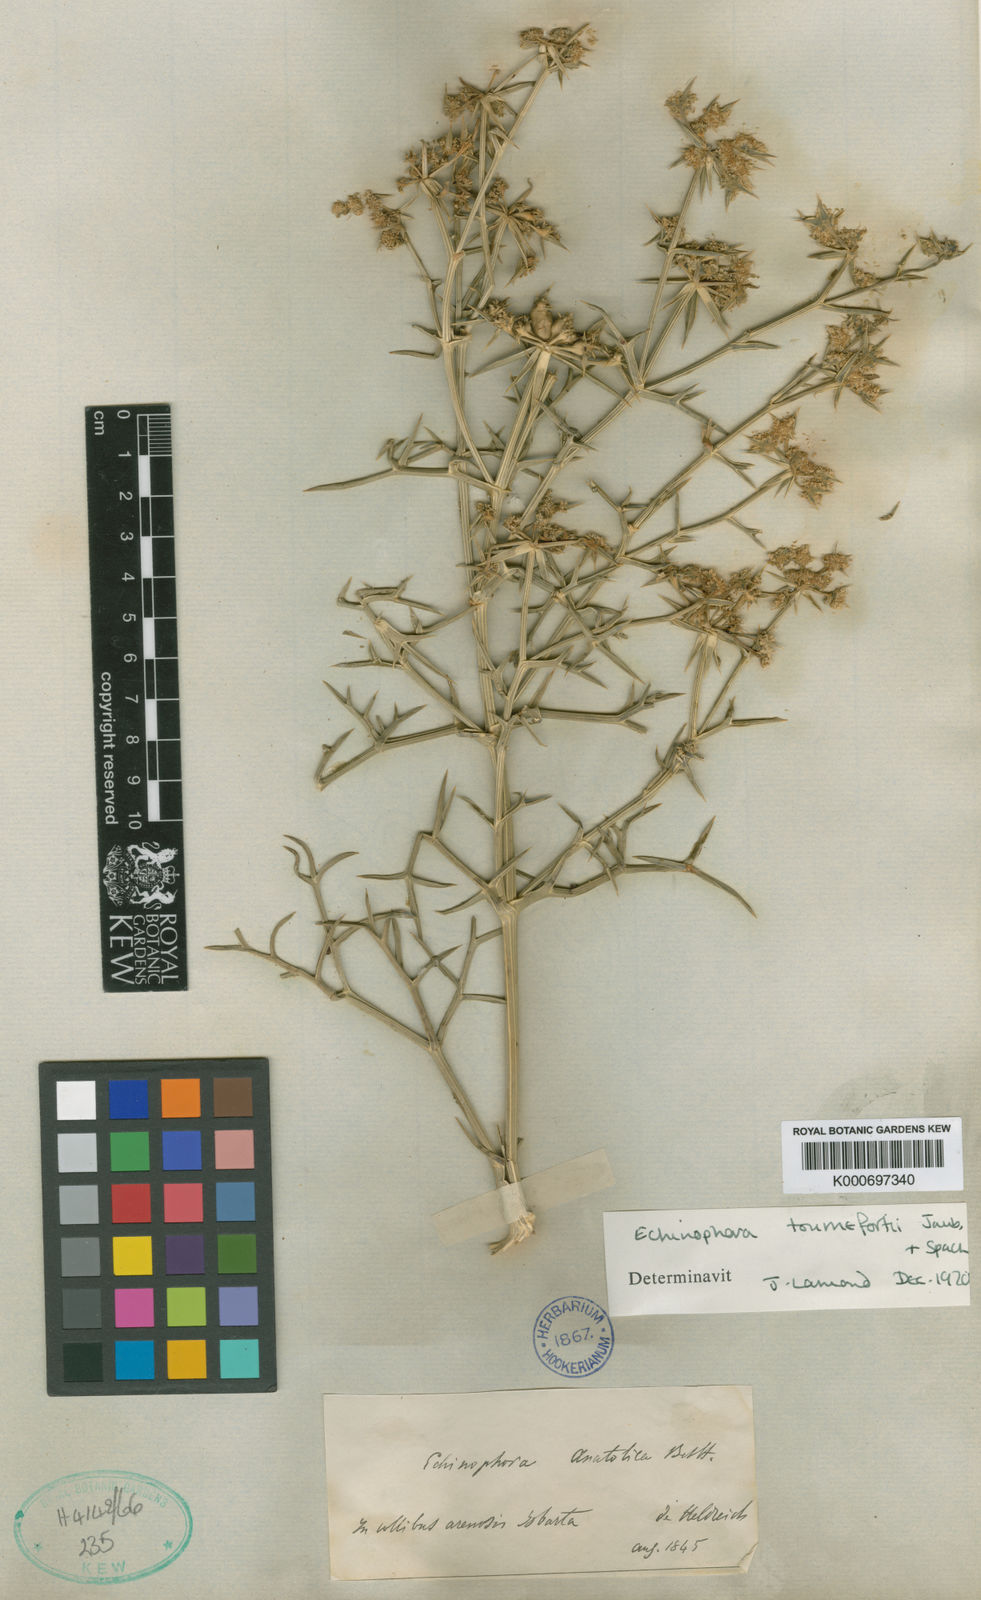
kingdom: Plantae
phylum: Tracheophyta
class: Magnoliopsida
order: Apiales
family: Apiaceae
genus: Echinophora
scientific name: Echinophora tournefortii
